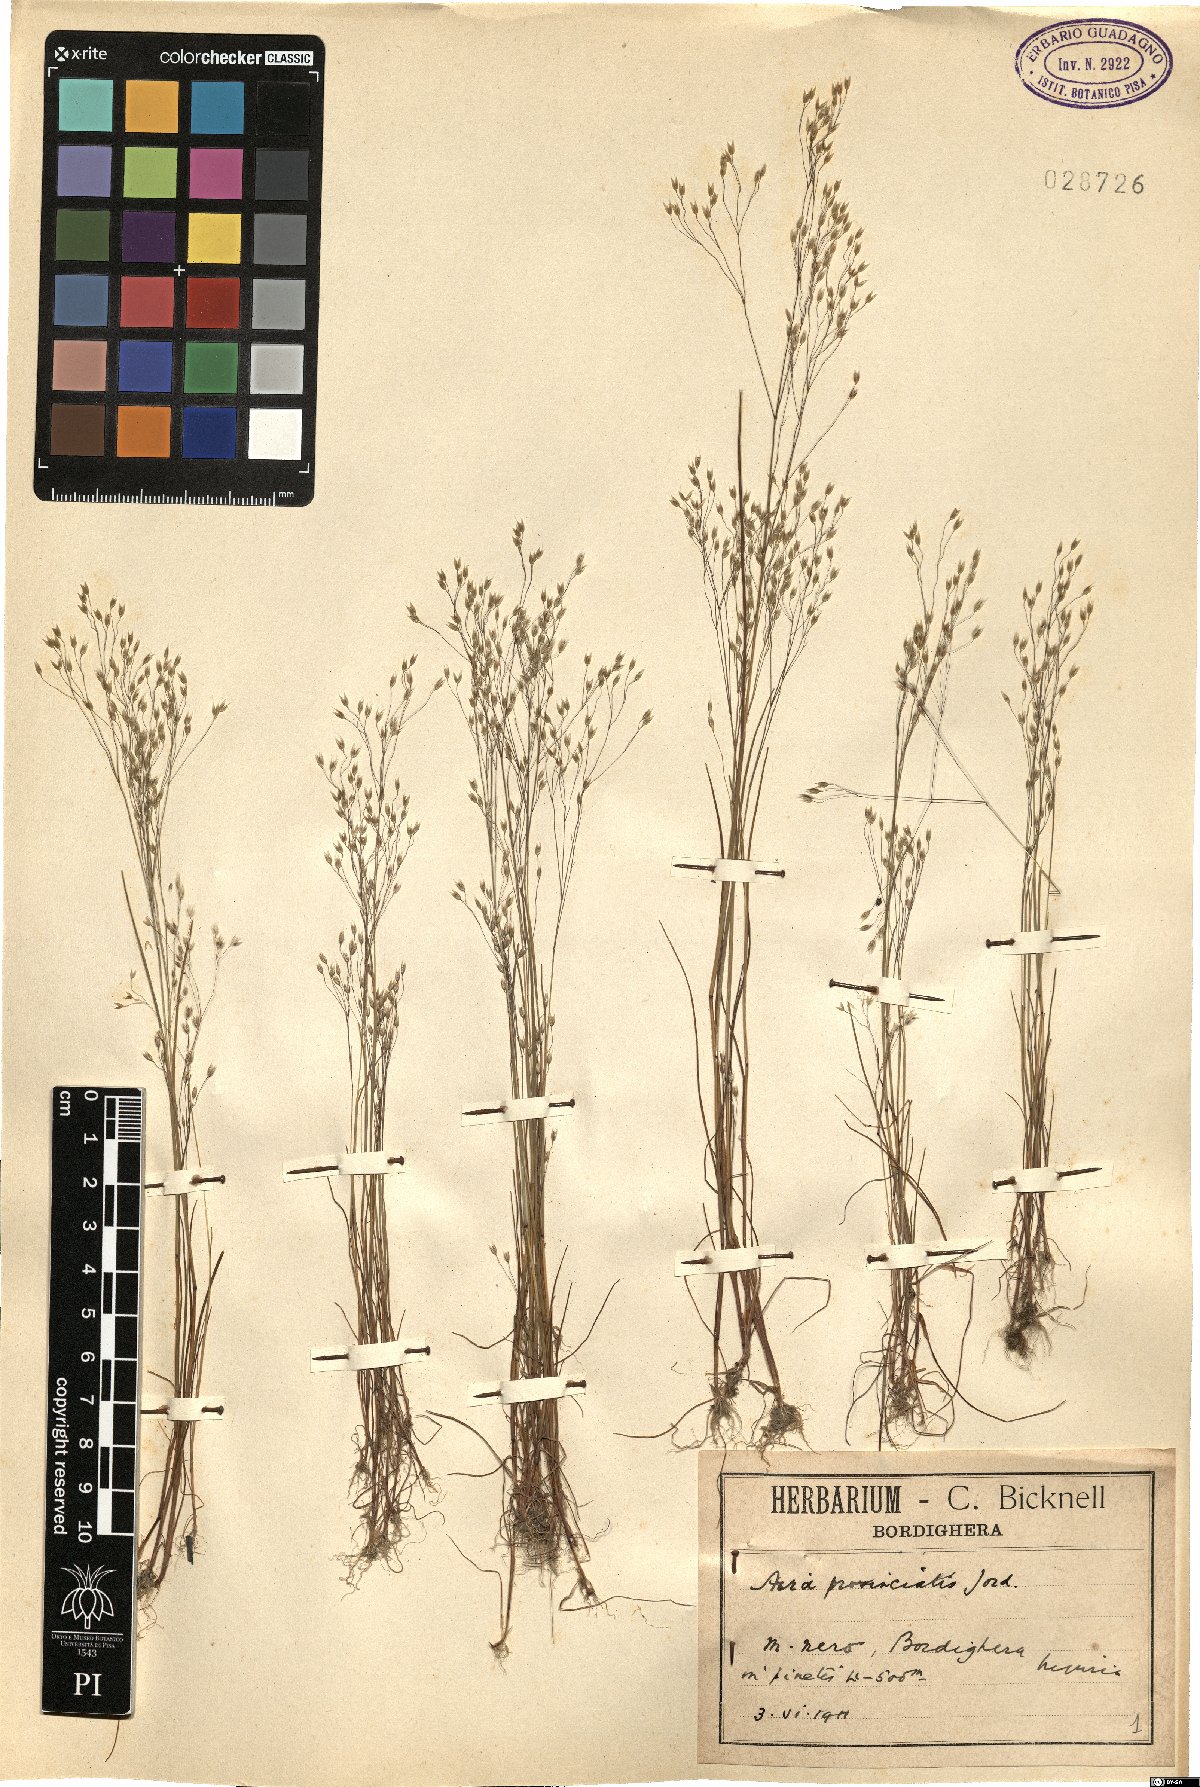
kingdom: Plantae
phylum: Tracheophyta
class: Liliopsida
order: Poales
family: Poaceae
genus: Aira
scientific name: Aira provincialis
